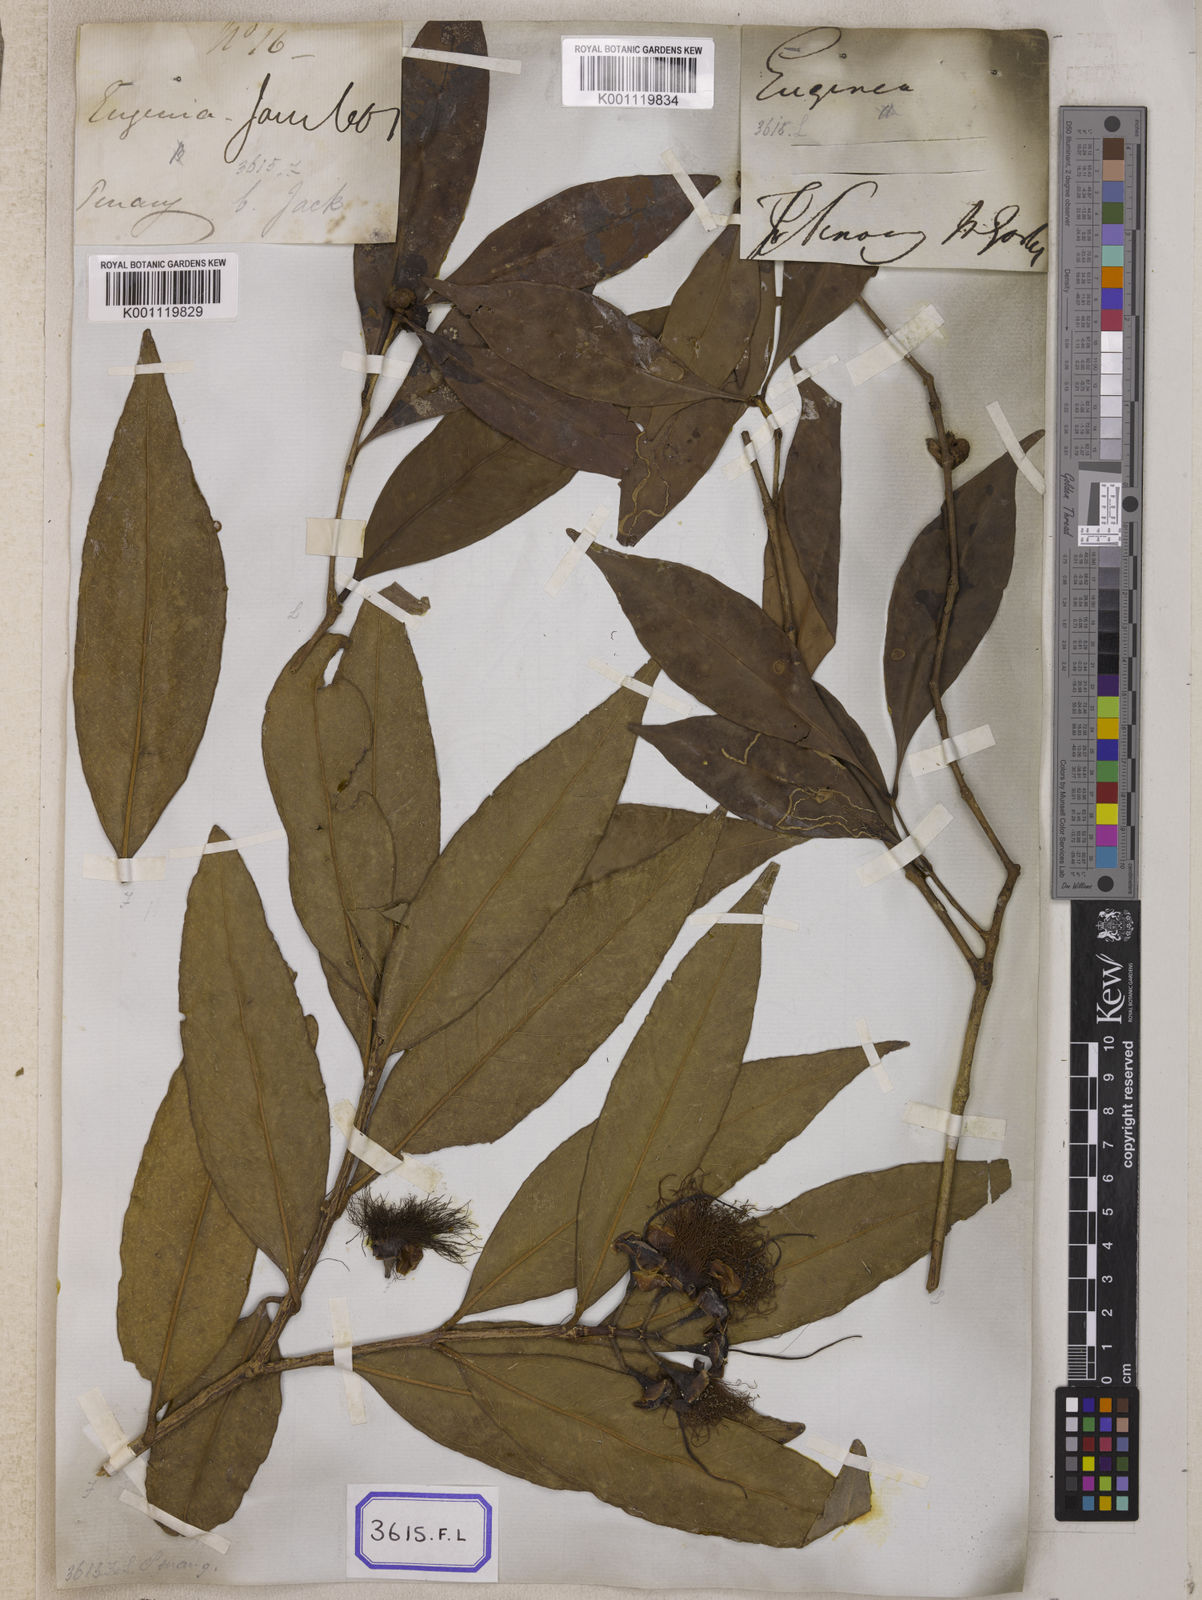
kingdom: Plantae
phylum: Tracheophyta
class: Magnoliopsida
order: Myrtales
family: Myrtaceae
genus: Syzygium
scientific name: Syzygium jambos
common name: Malabar plum
